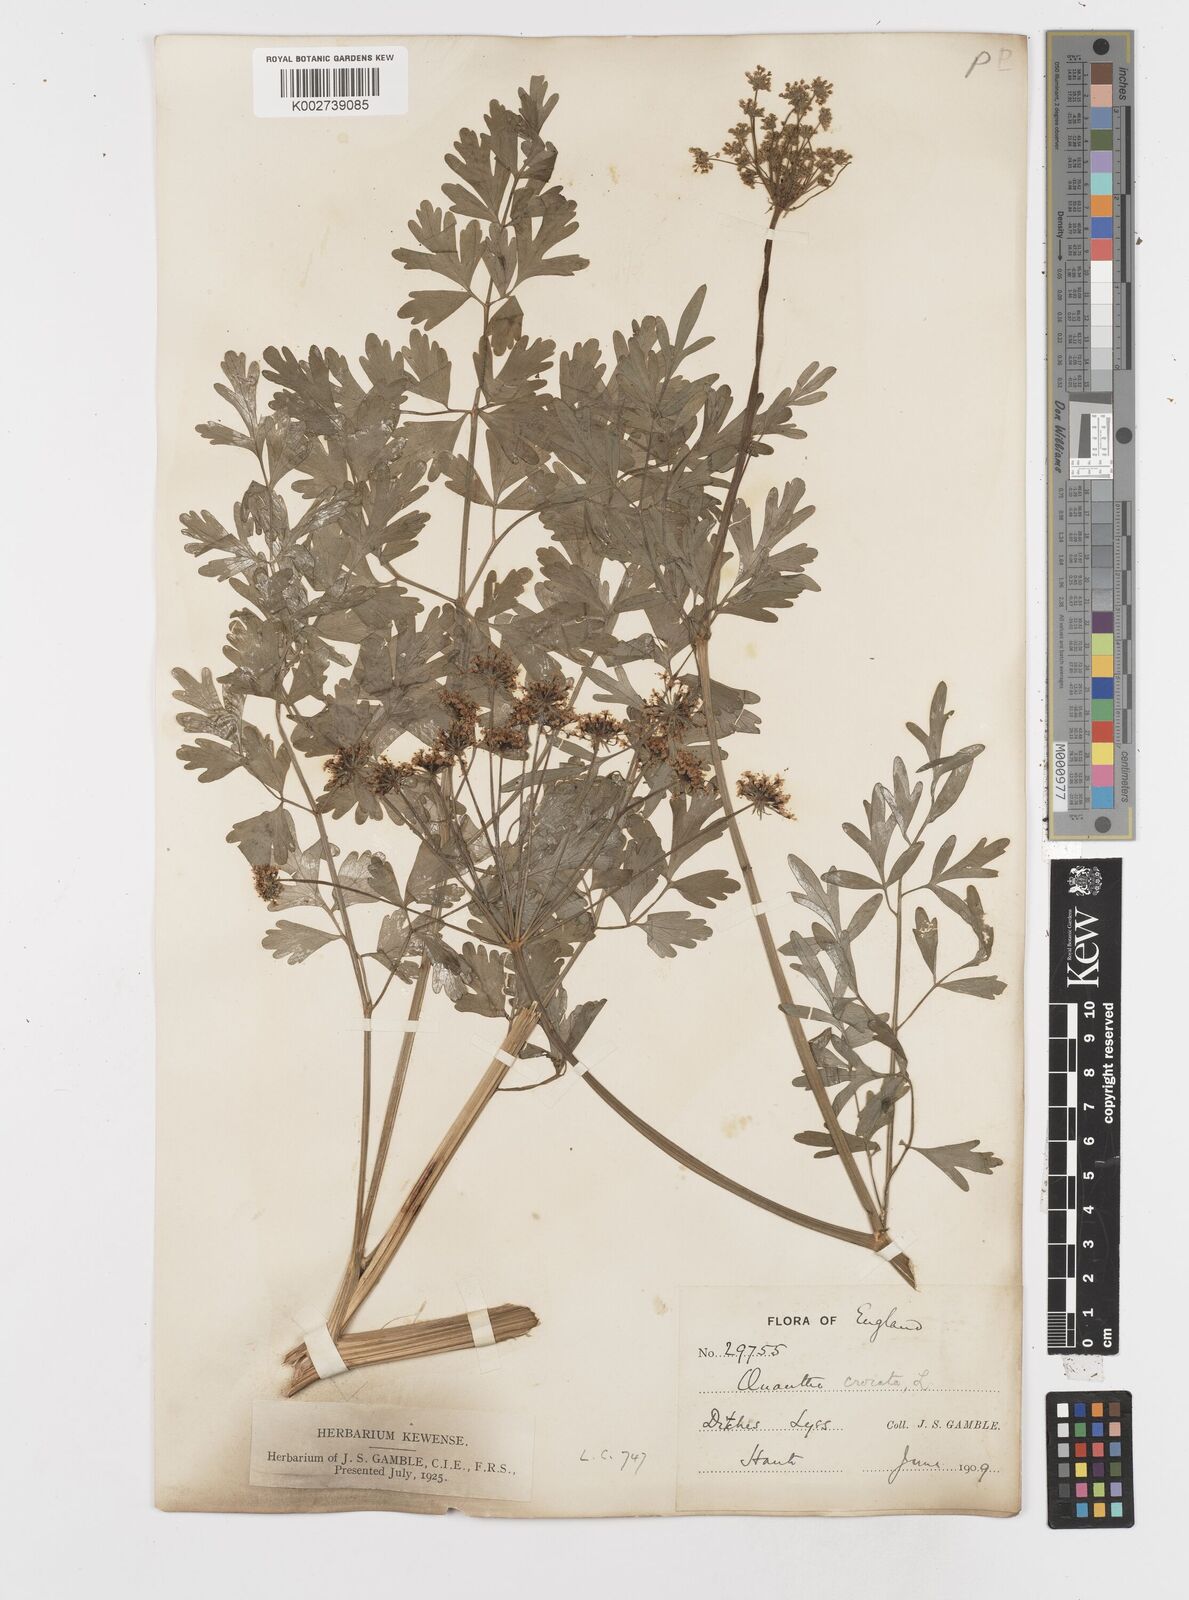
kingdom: Plantae
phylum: Tracheophyta
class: Magnoliopsida
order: Apiales
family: Apiaceae
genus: Oenanthe
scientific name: Oenanthe crocata
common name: Hemlock water-dropwort
